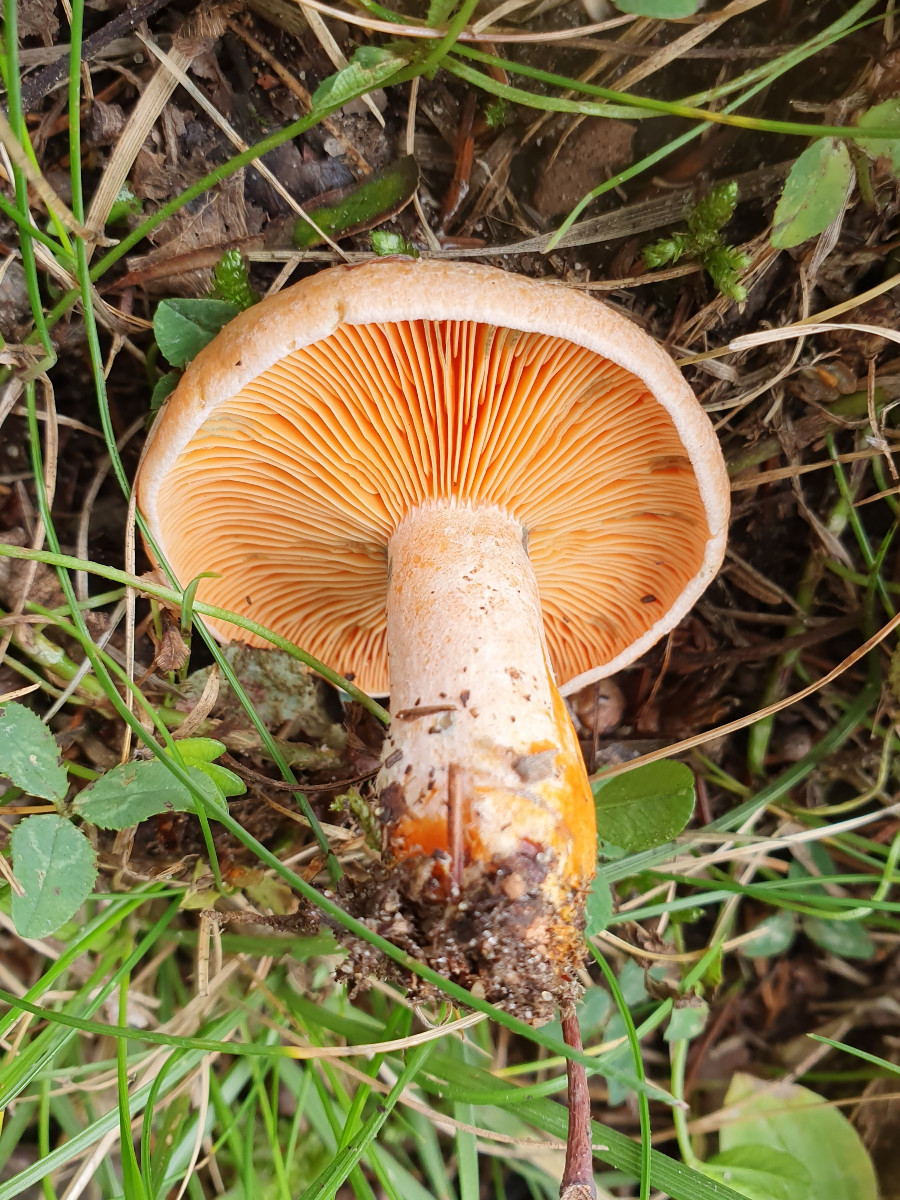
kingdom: Fungi
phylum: Basidiomycota
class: Agaricomycetes
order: Russulales
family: Russulaceae
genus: Lactarius
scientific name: Lactarius deterrimus
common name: gran-mælkehat
